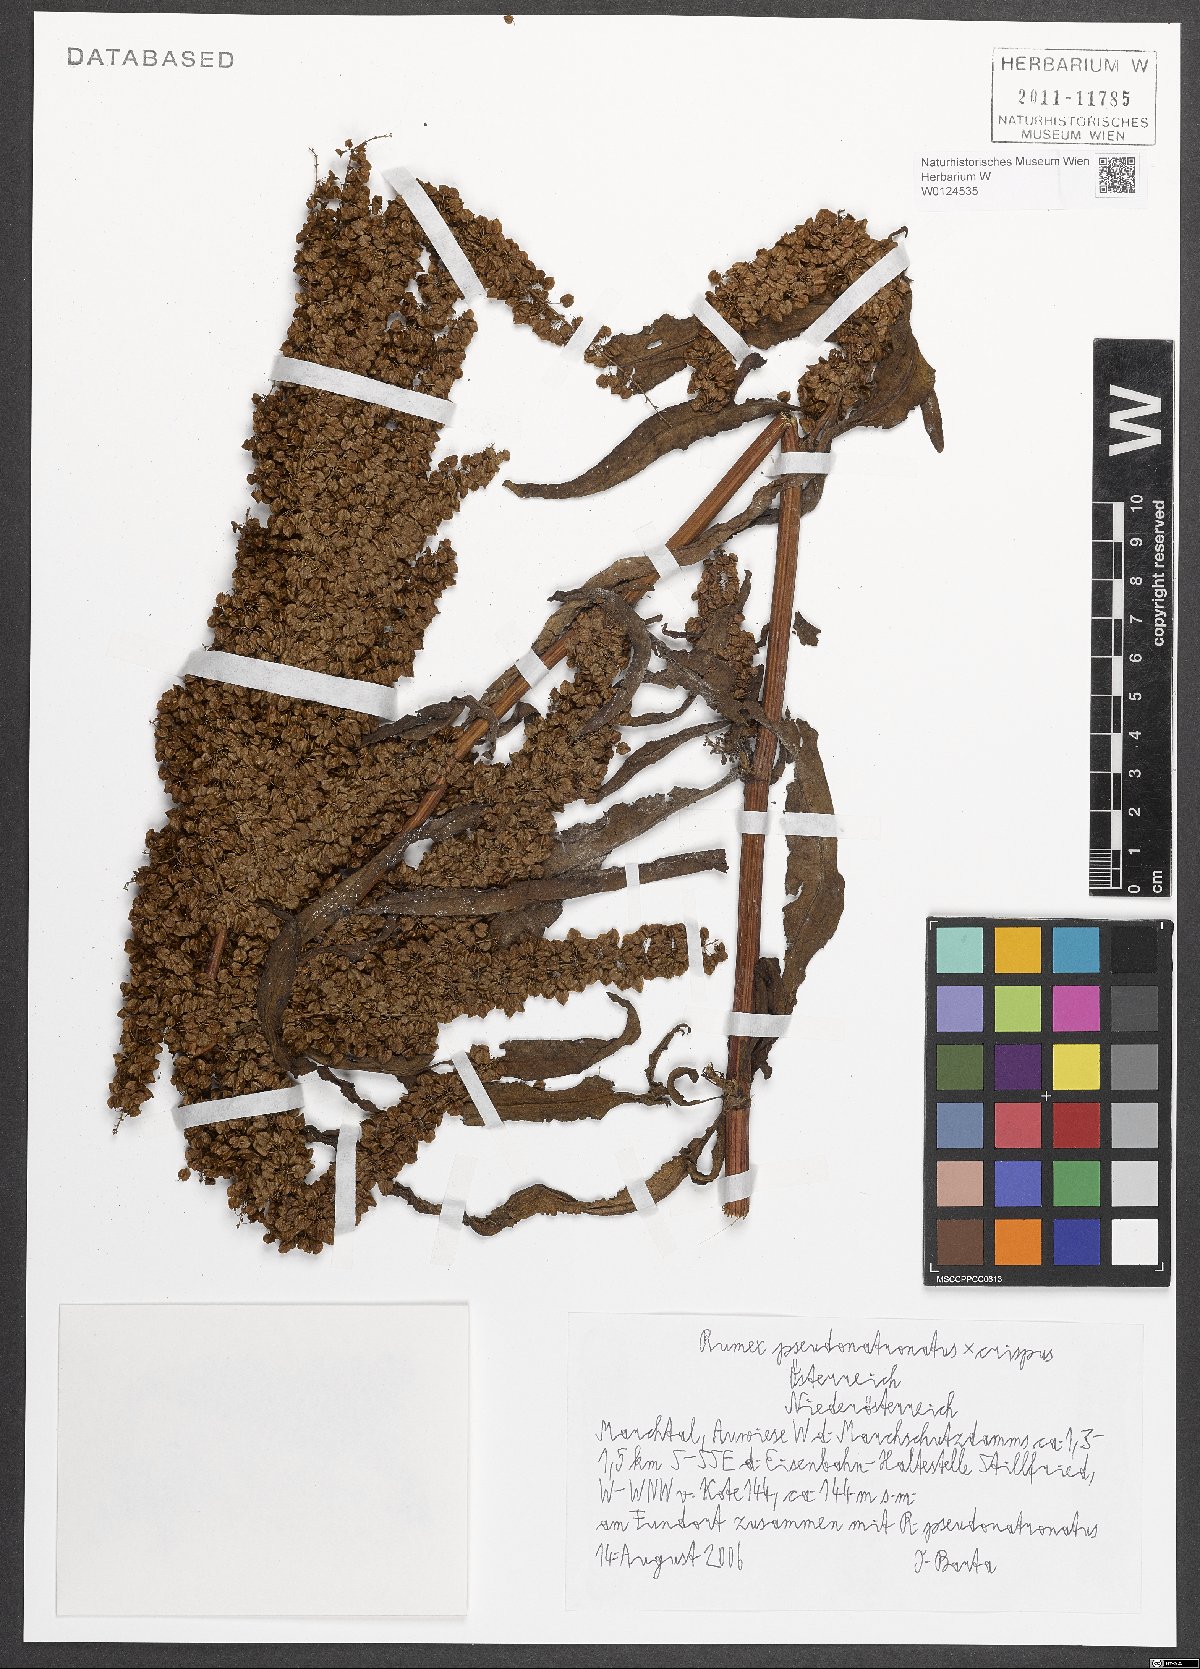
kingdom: Plantae
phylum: Tracheophyta
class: Magnoliopsida
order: Caryophyllales
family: Polygonaceae
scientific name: Polygonaceae
